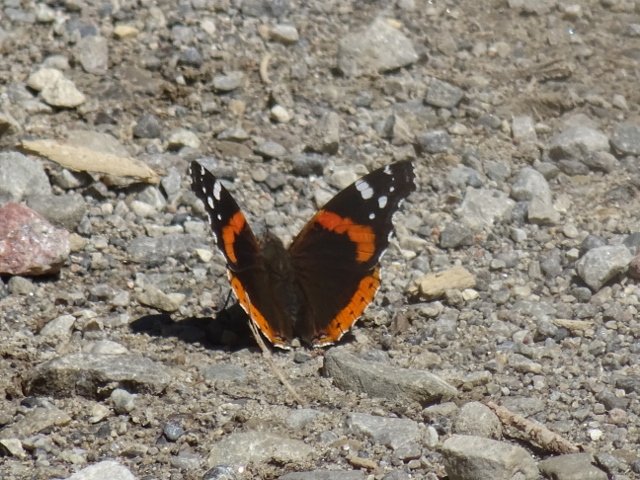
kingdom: Animalia
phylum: Arthropoda
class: Insecta
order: Lepidoptera
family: Nymphalidae
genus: Vanessa
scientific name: Vanessa atalanta
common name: Red Admiral
